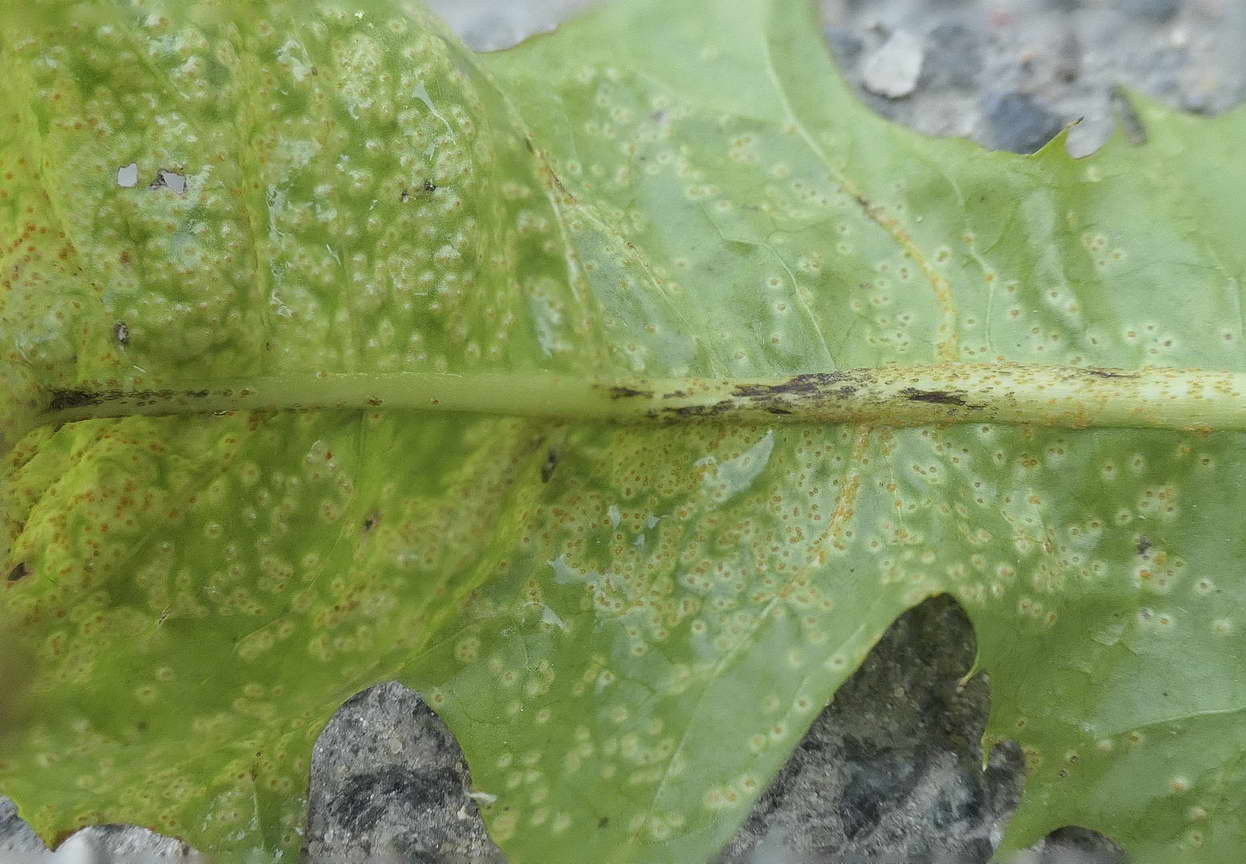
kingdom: Fungi
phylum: Basidiomycota
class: Pucciniomycetes
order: Pucciniales
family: Pucciniaceae
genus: Puccinia
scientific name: Puccinia hieracii
